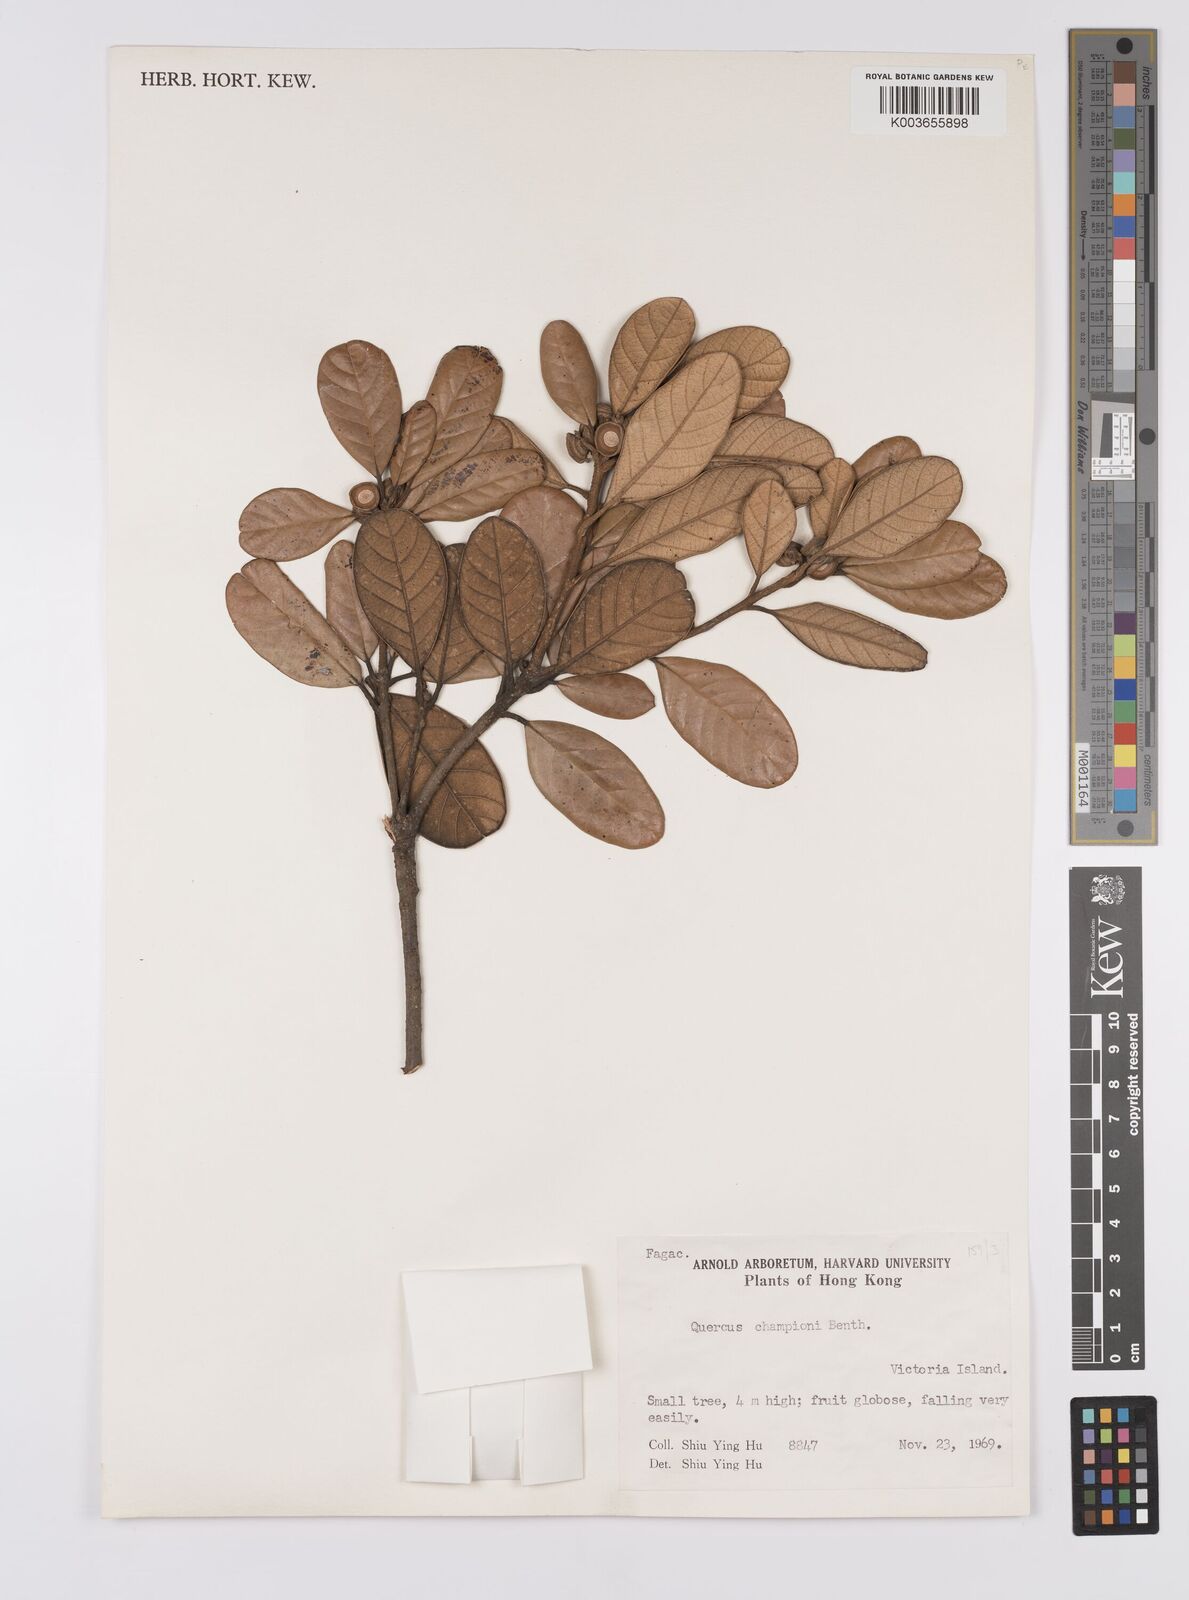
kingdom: Plantae
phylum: Tracheophyta
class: Magnoliopsida
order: Fagales
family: Fagaceae
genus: Quercus
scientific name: Quercus championii
